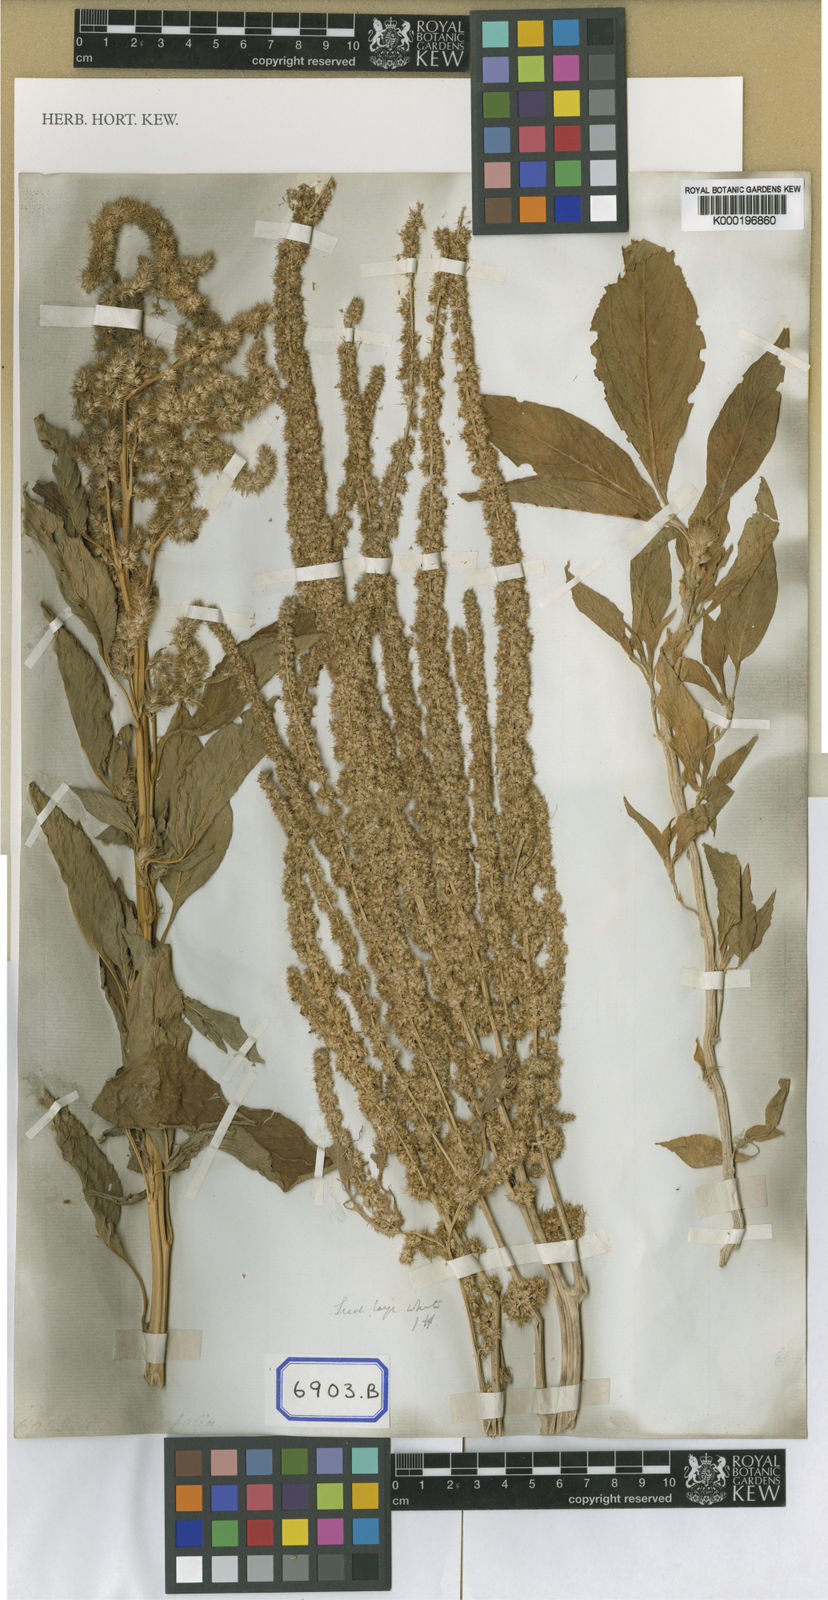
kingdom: Plantae
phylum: Tracheophyta
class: Magnoliopsida
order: Caryophyllales
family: Amaranthaceae
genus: Amaranthus
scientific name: Amaranthus
